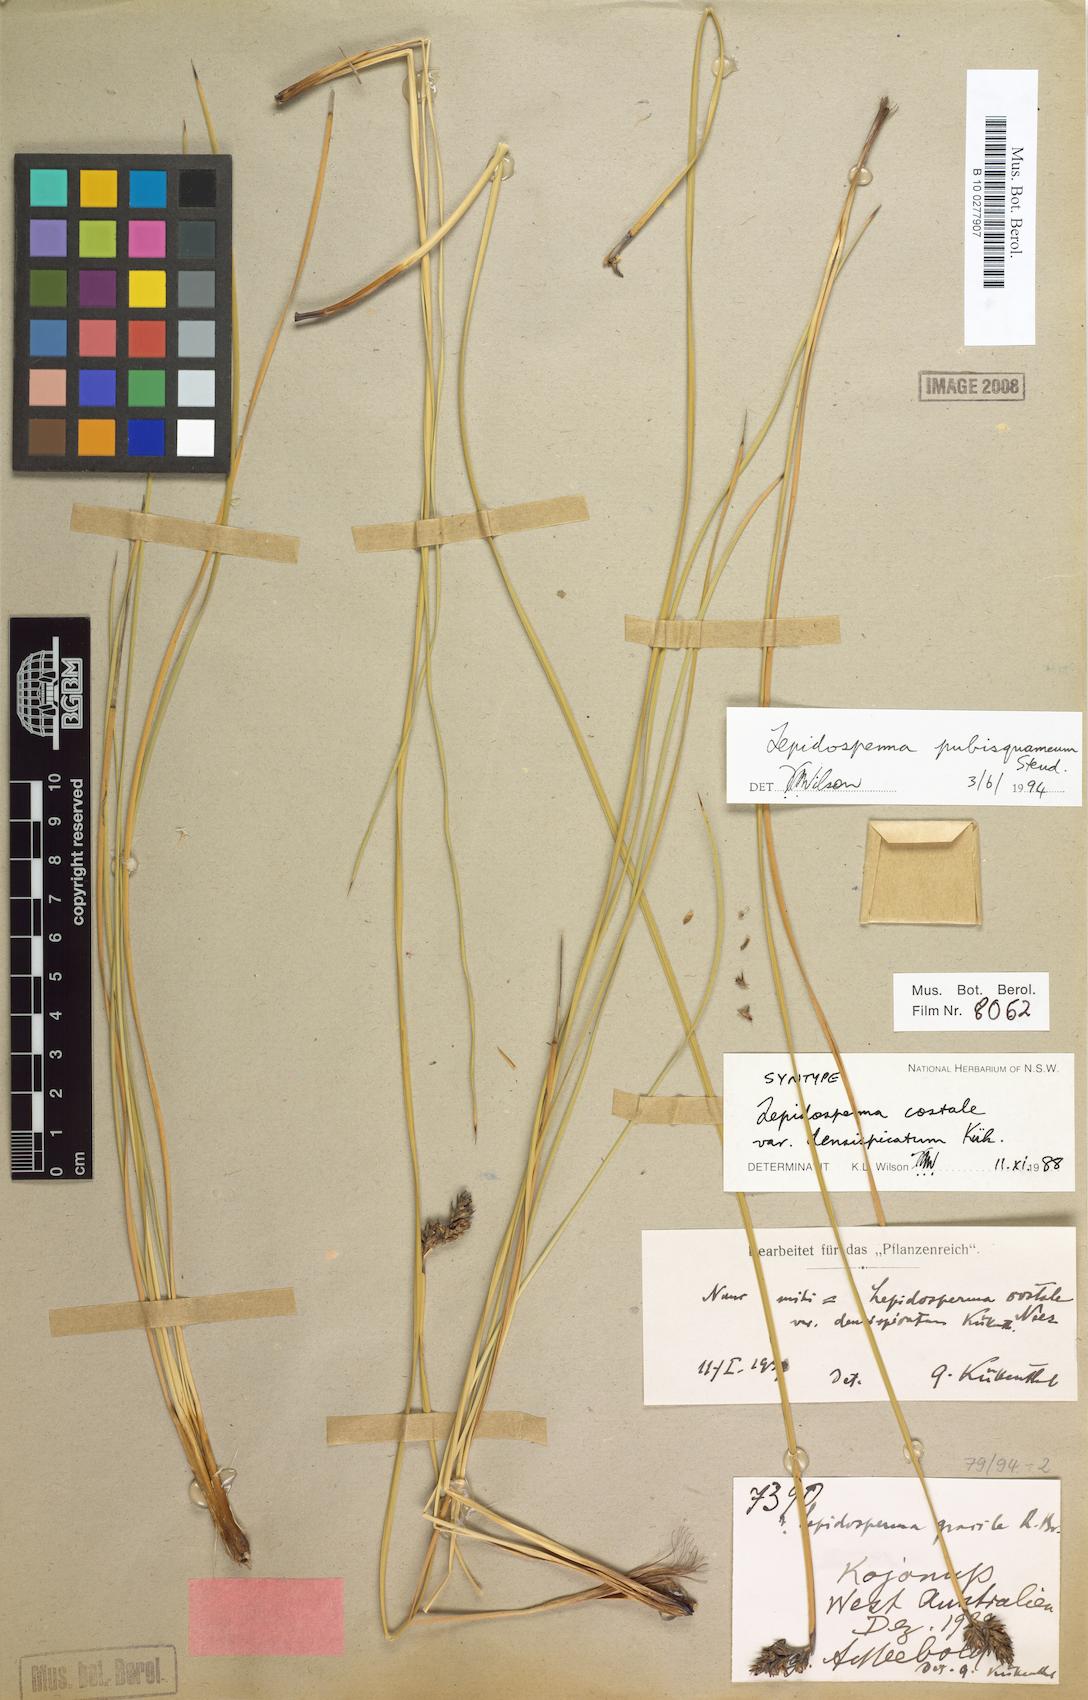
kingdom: Plantae
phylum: Tracheophyta
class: Liliopsida
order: Poales
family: Cyperaceae
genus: Lepidosperma
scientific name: Lepidosperma pubisquameum
